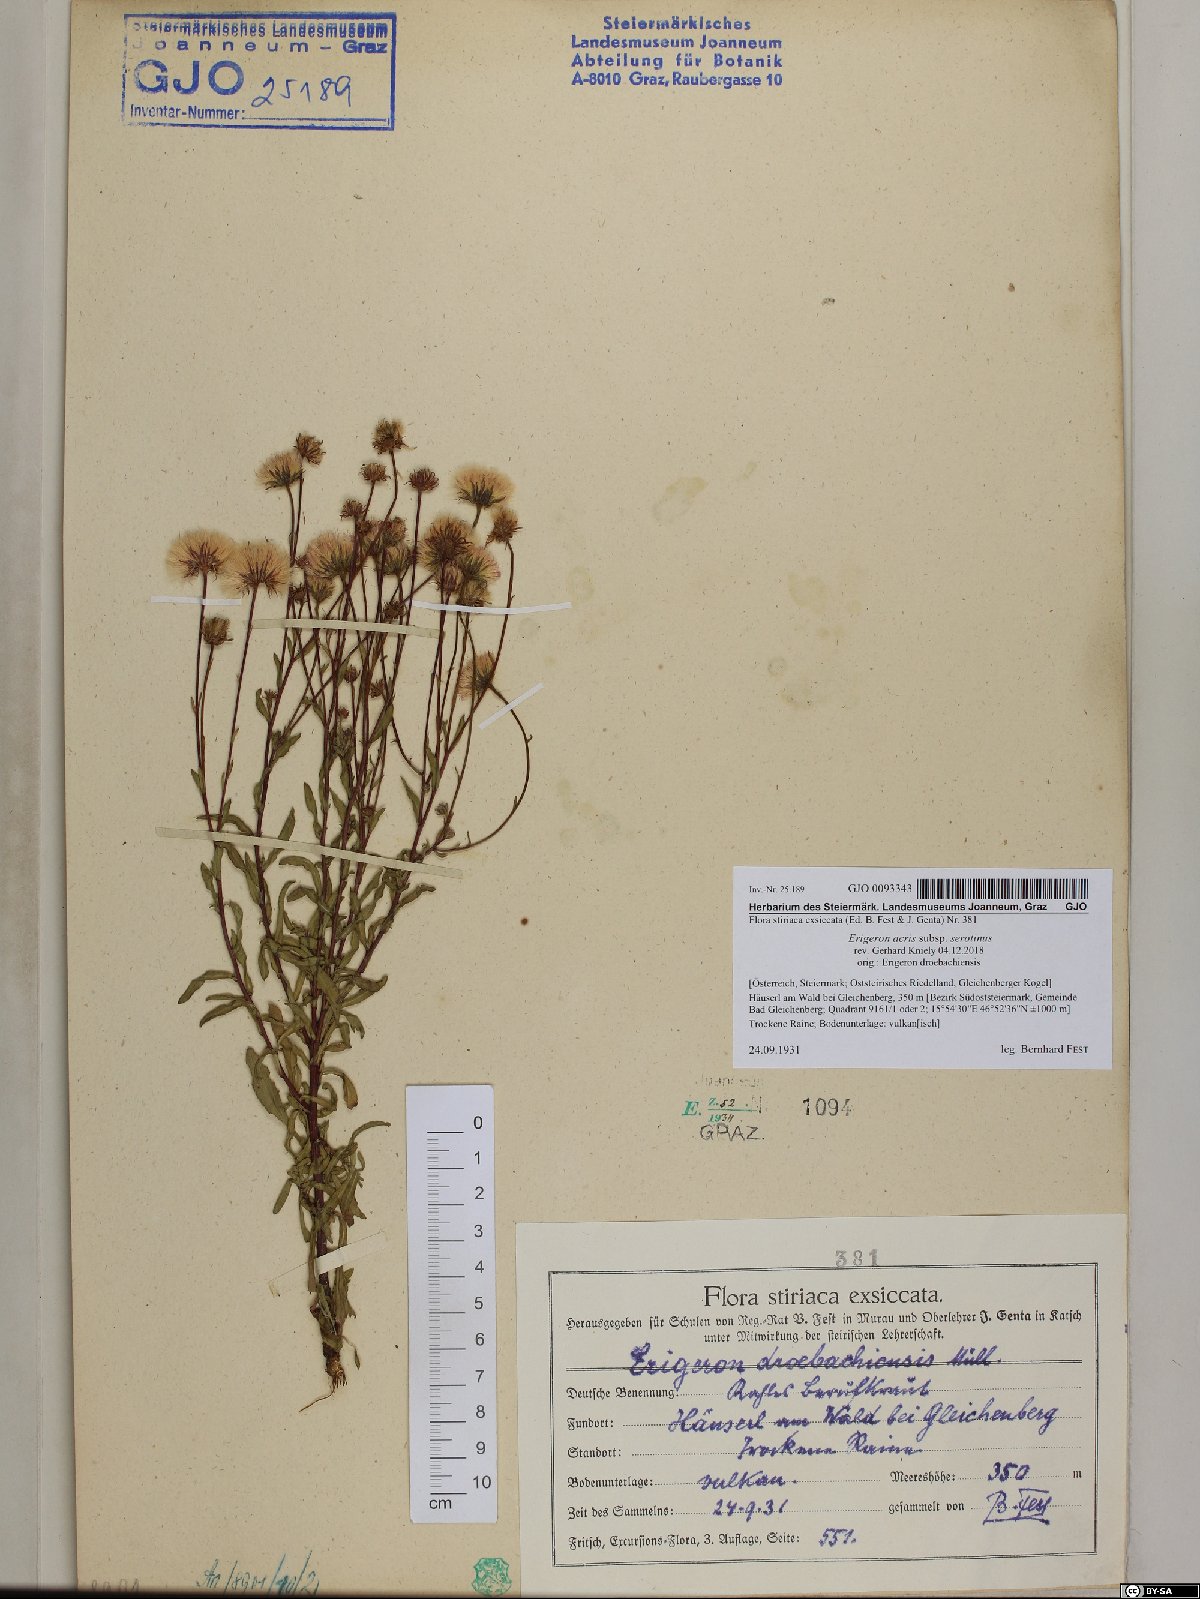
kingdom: Plantae
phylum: Tracheophyta
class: Magnoliopsida
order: Asterales
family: Asteraceae
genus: Erigeron
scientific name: Erigeron muralis
